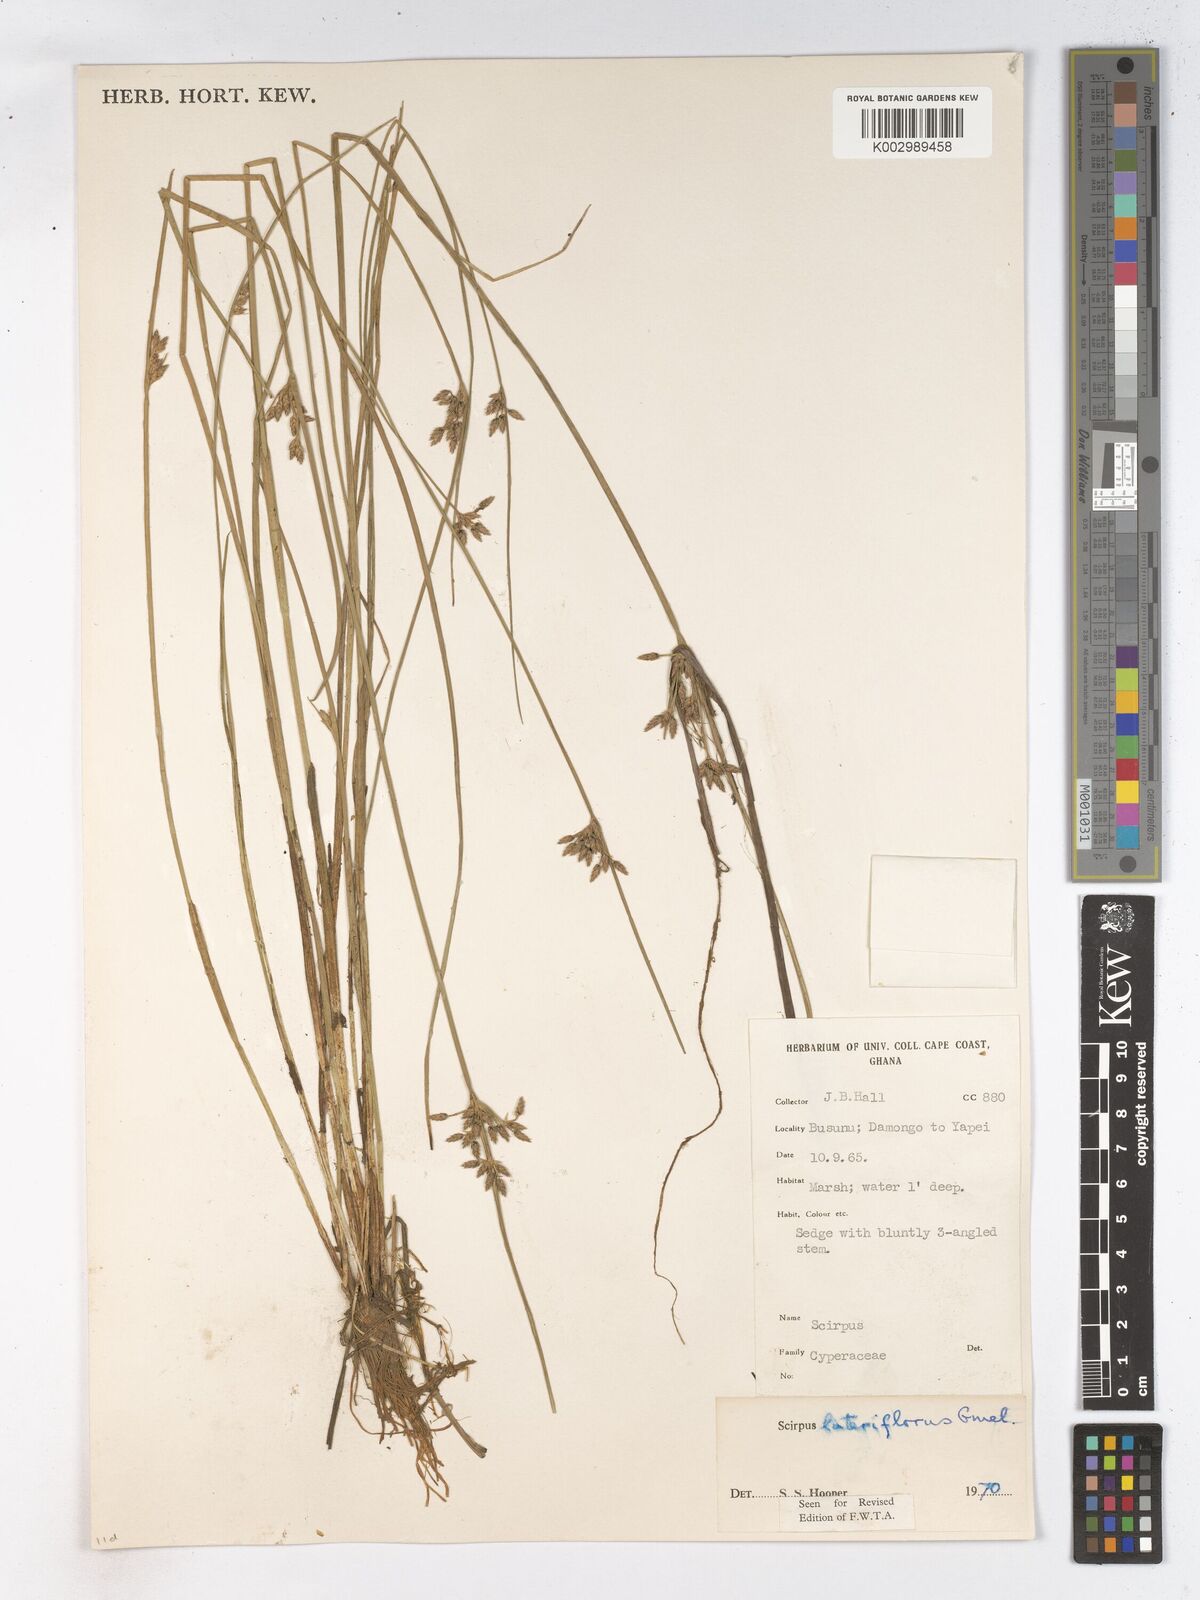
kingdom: Plantae
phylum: Tracheophyta
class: Liliopsida
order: Poales
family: Cyperaceae
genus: Schoenoplectiella
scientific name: Schoenoplectiella lateriflora
